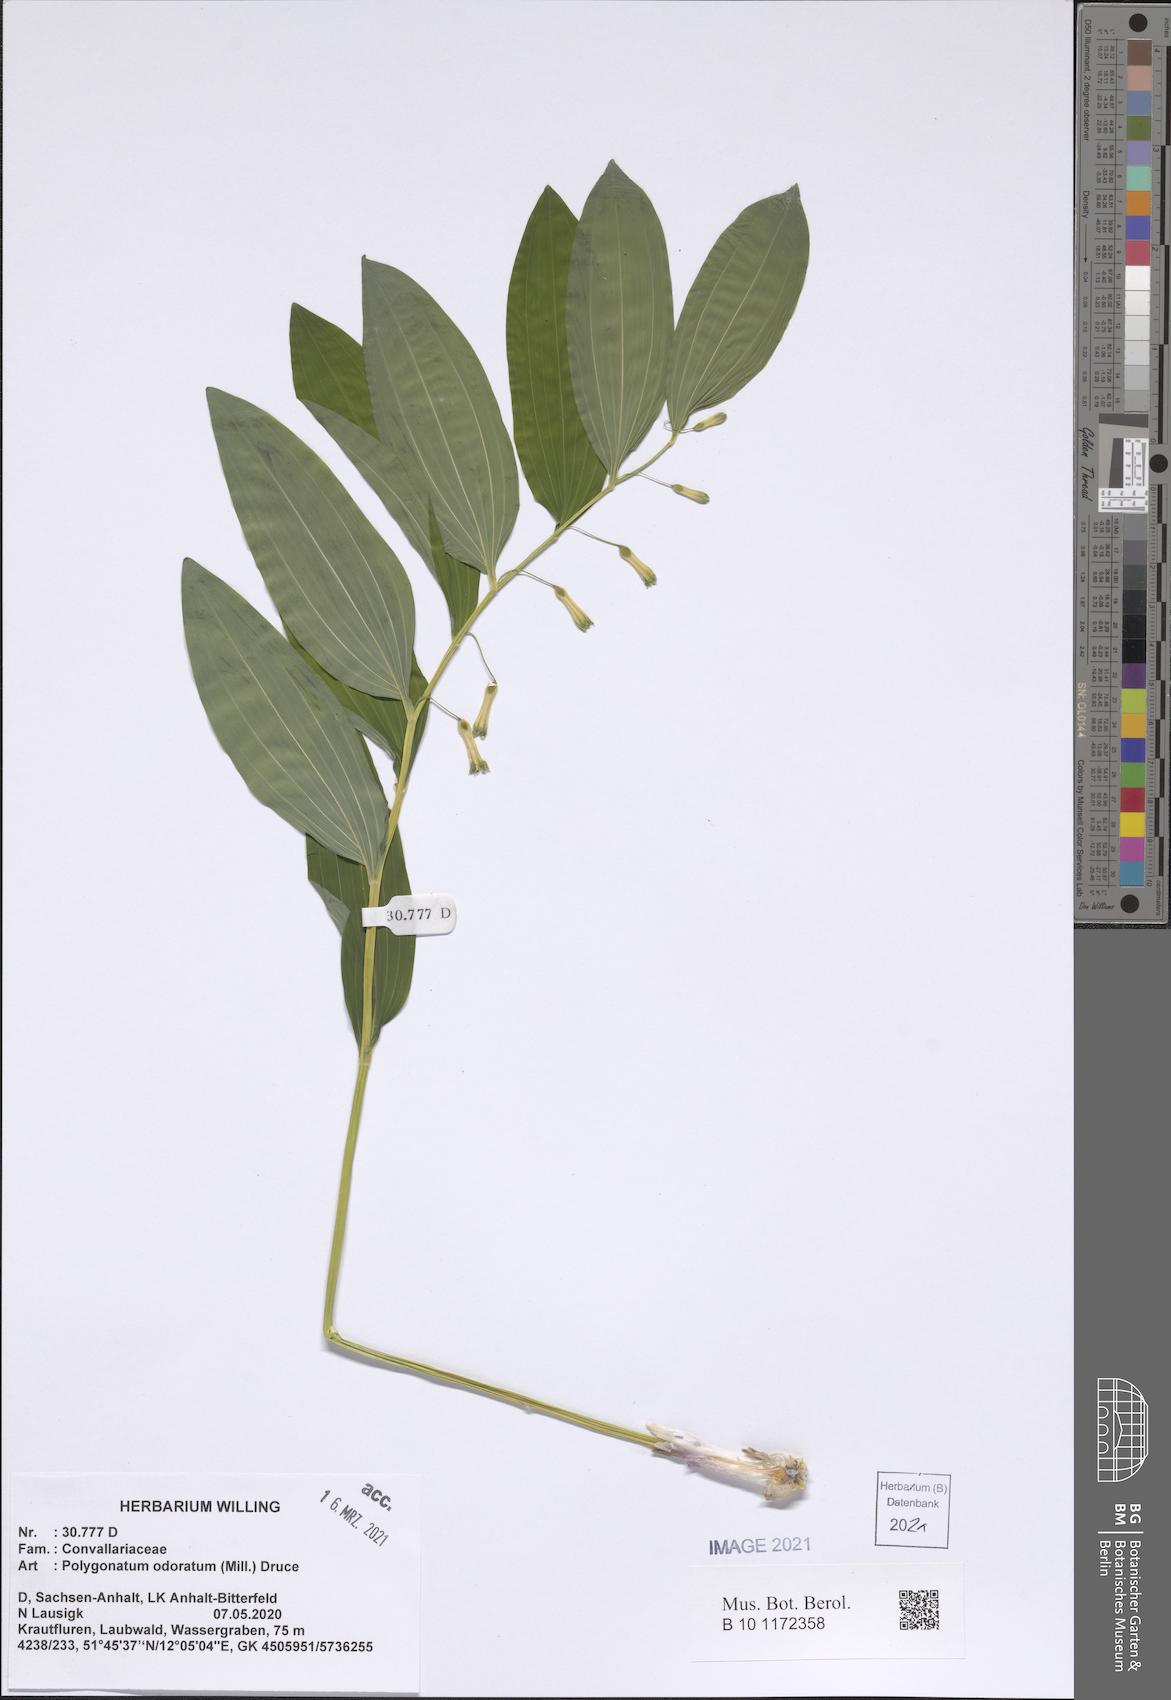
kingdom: Plantae
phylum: Tracheophyta
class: Liliopsida
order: Asparagales
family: Asparagaceae
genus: Polygonatum
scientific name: Polygonatum odoratum
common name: Angular solomon's-seal
